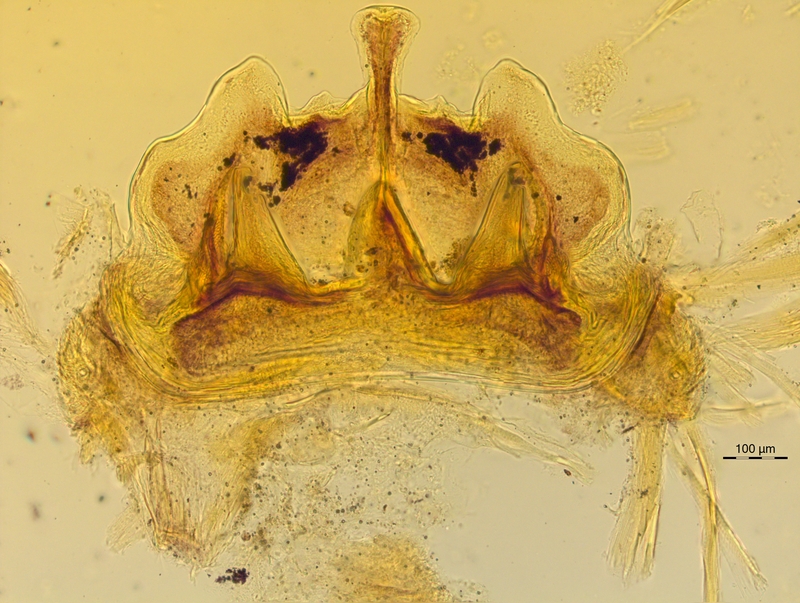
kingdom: Animalia
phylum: Arthropoda
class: Diplopoda
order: Chordeumatida
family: Craspedosomatidae
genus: Craspedosoma
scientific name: Craspedosoma rawlinsii
